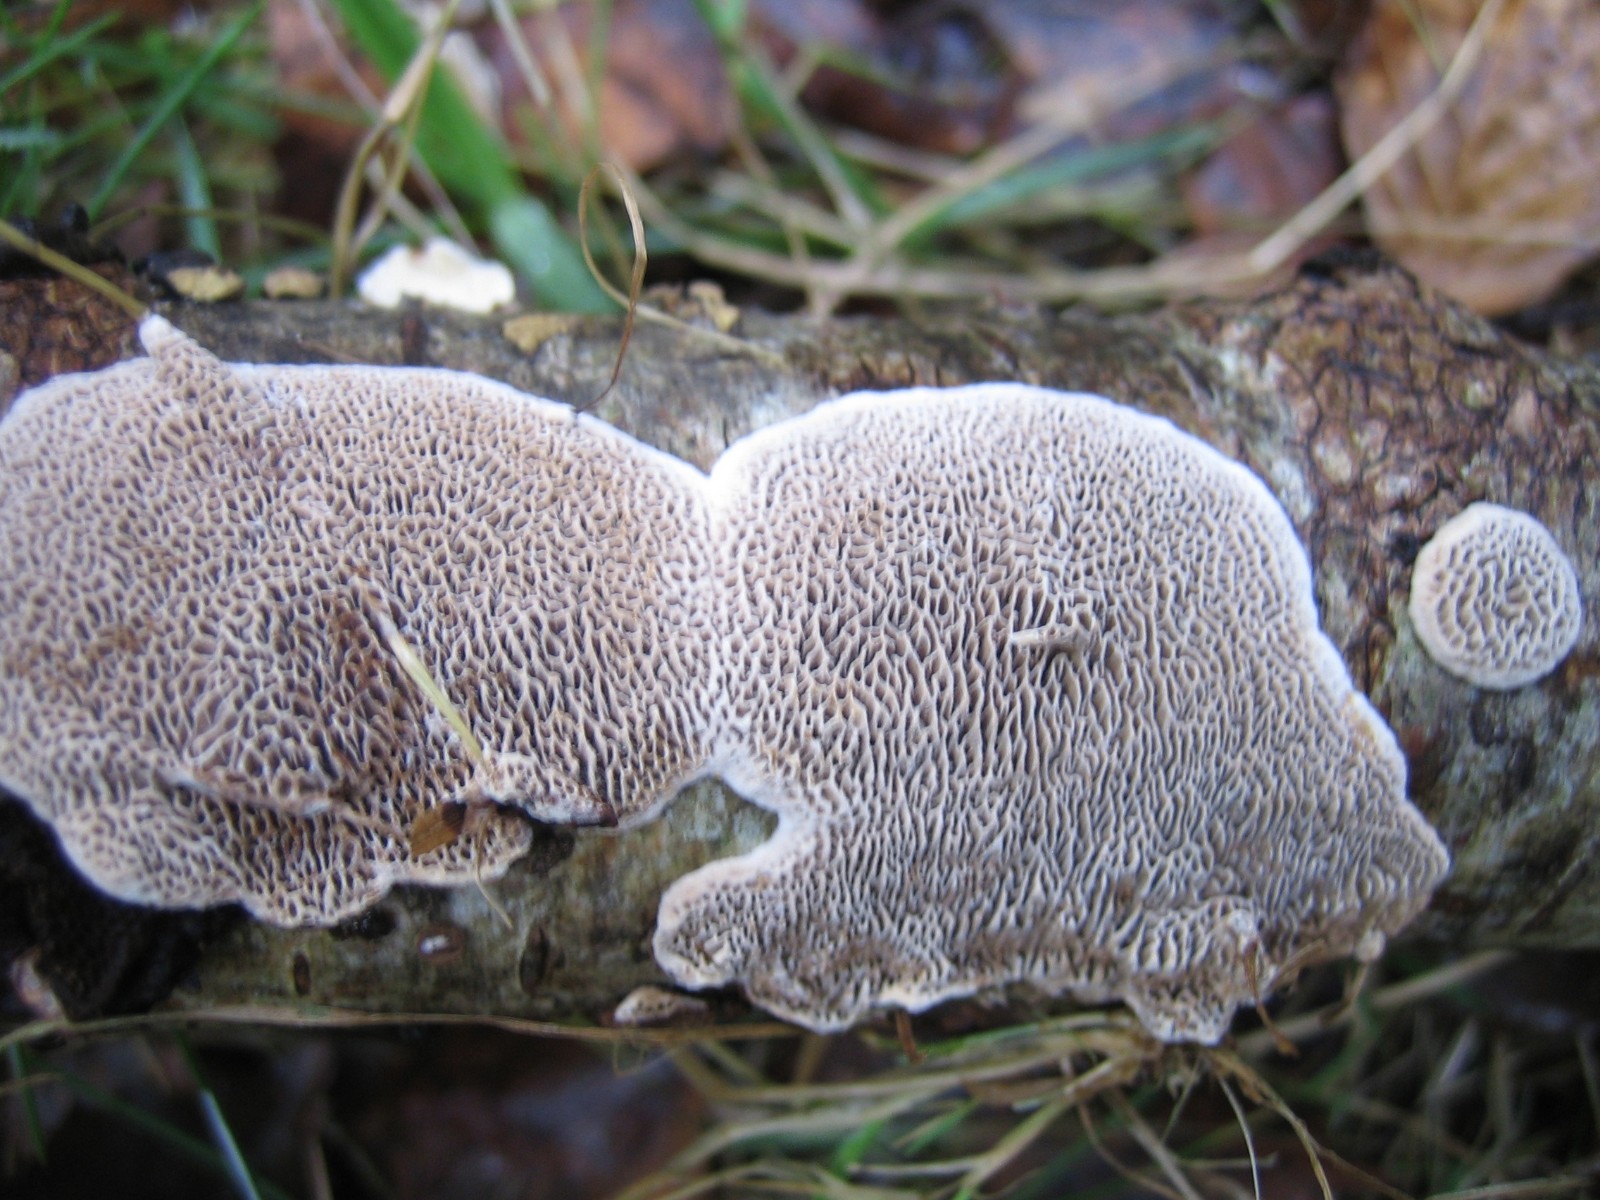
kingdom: Fungi
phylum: Basidiomycota
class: Agaricomycetes
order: Polyporales
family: Polyporaceae
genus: Podofomes
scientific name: Podofomes mollis
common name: blød begporesvamp
